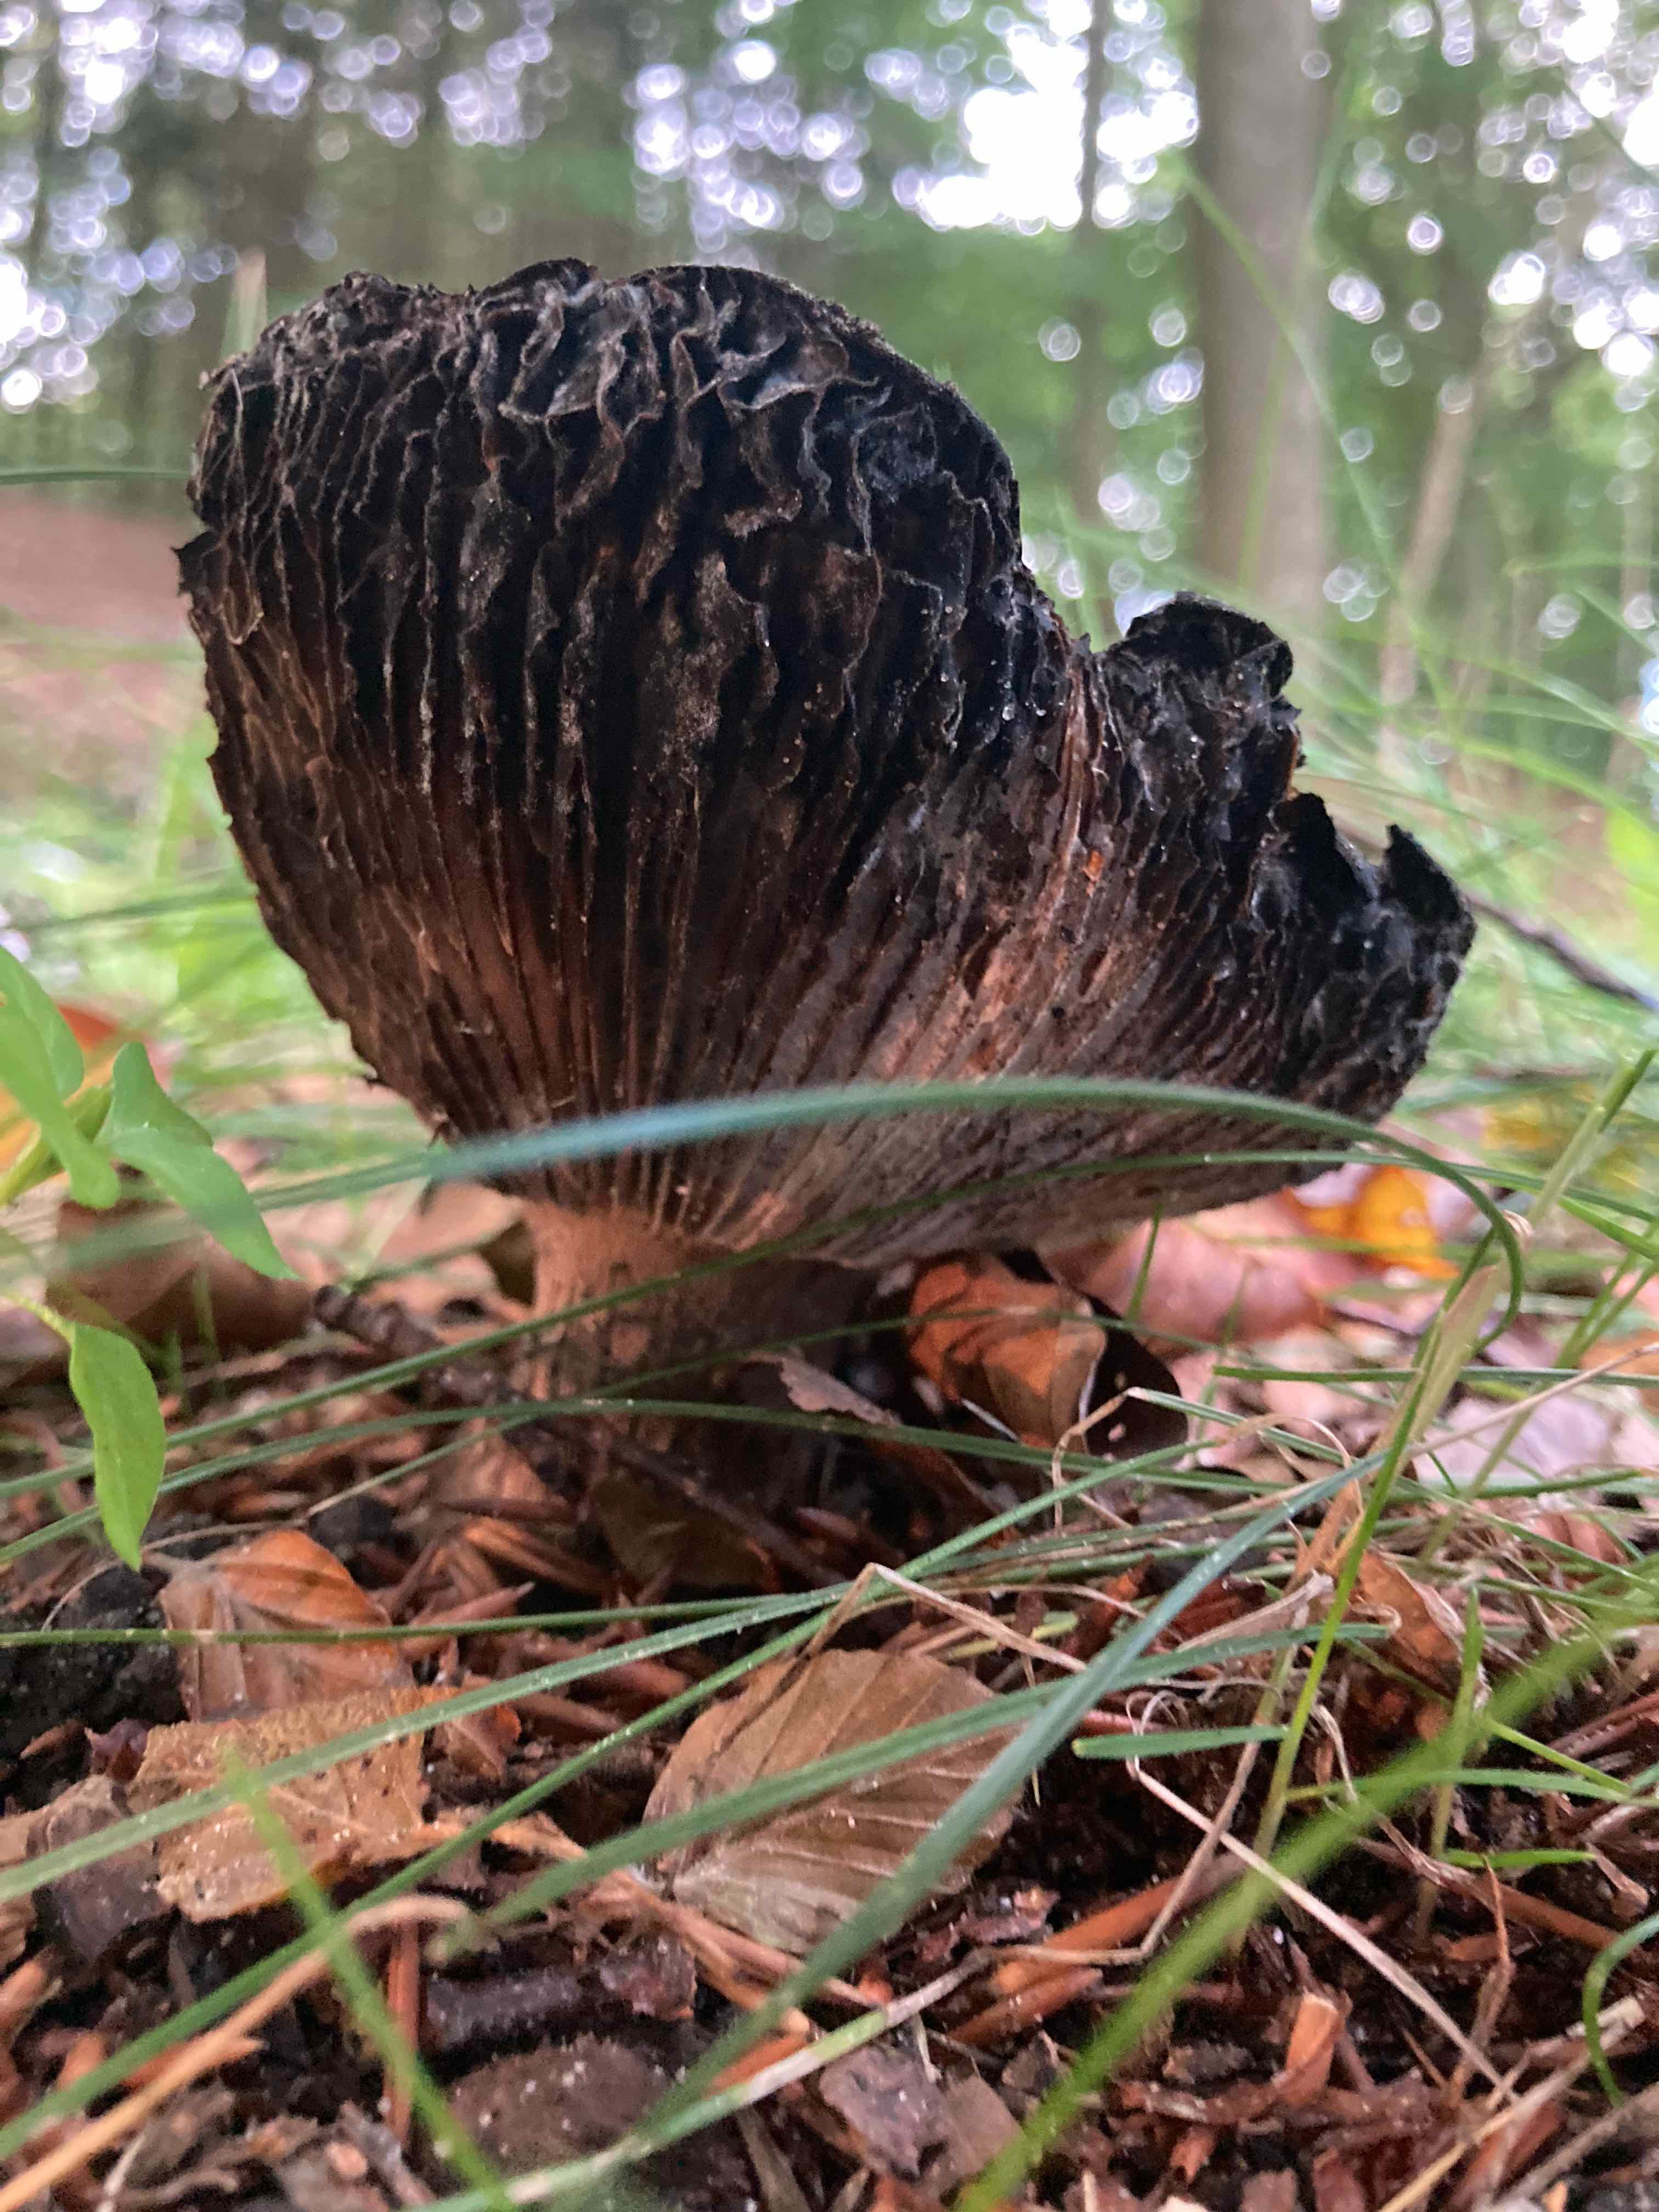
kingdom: Fungi
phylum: Basidiomycota
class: Agaricomycetes
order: Russulales
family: Russulaceae
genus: Russula
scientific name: Russula adusta
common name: sværtende skørhat
